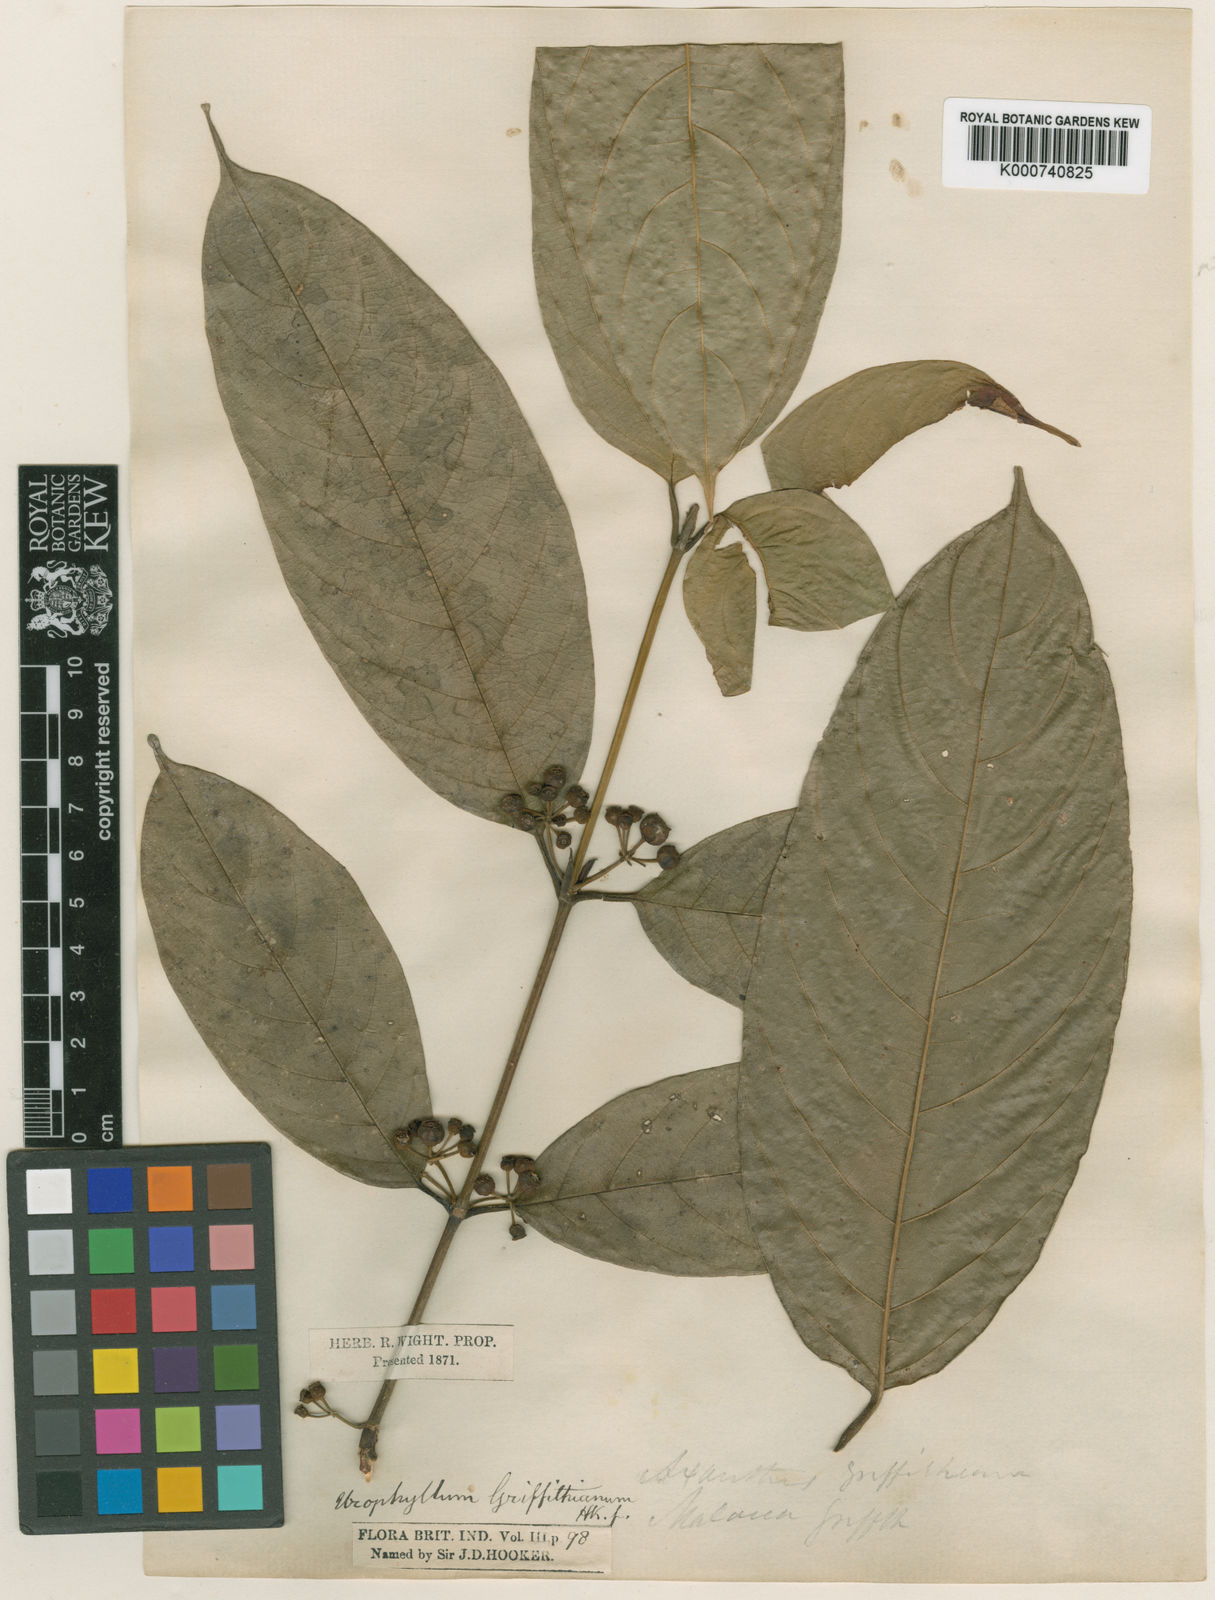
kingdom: Plantae
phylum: Tracheophyta
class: Magnoliopsida
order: Gentianales
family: Rubiaceae
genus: Urophyllum
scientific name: Urophyllum griffithianum
